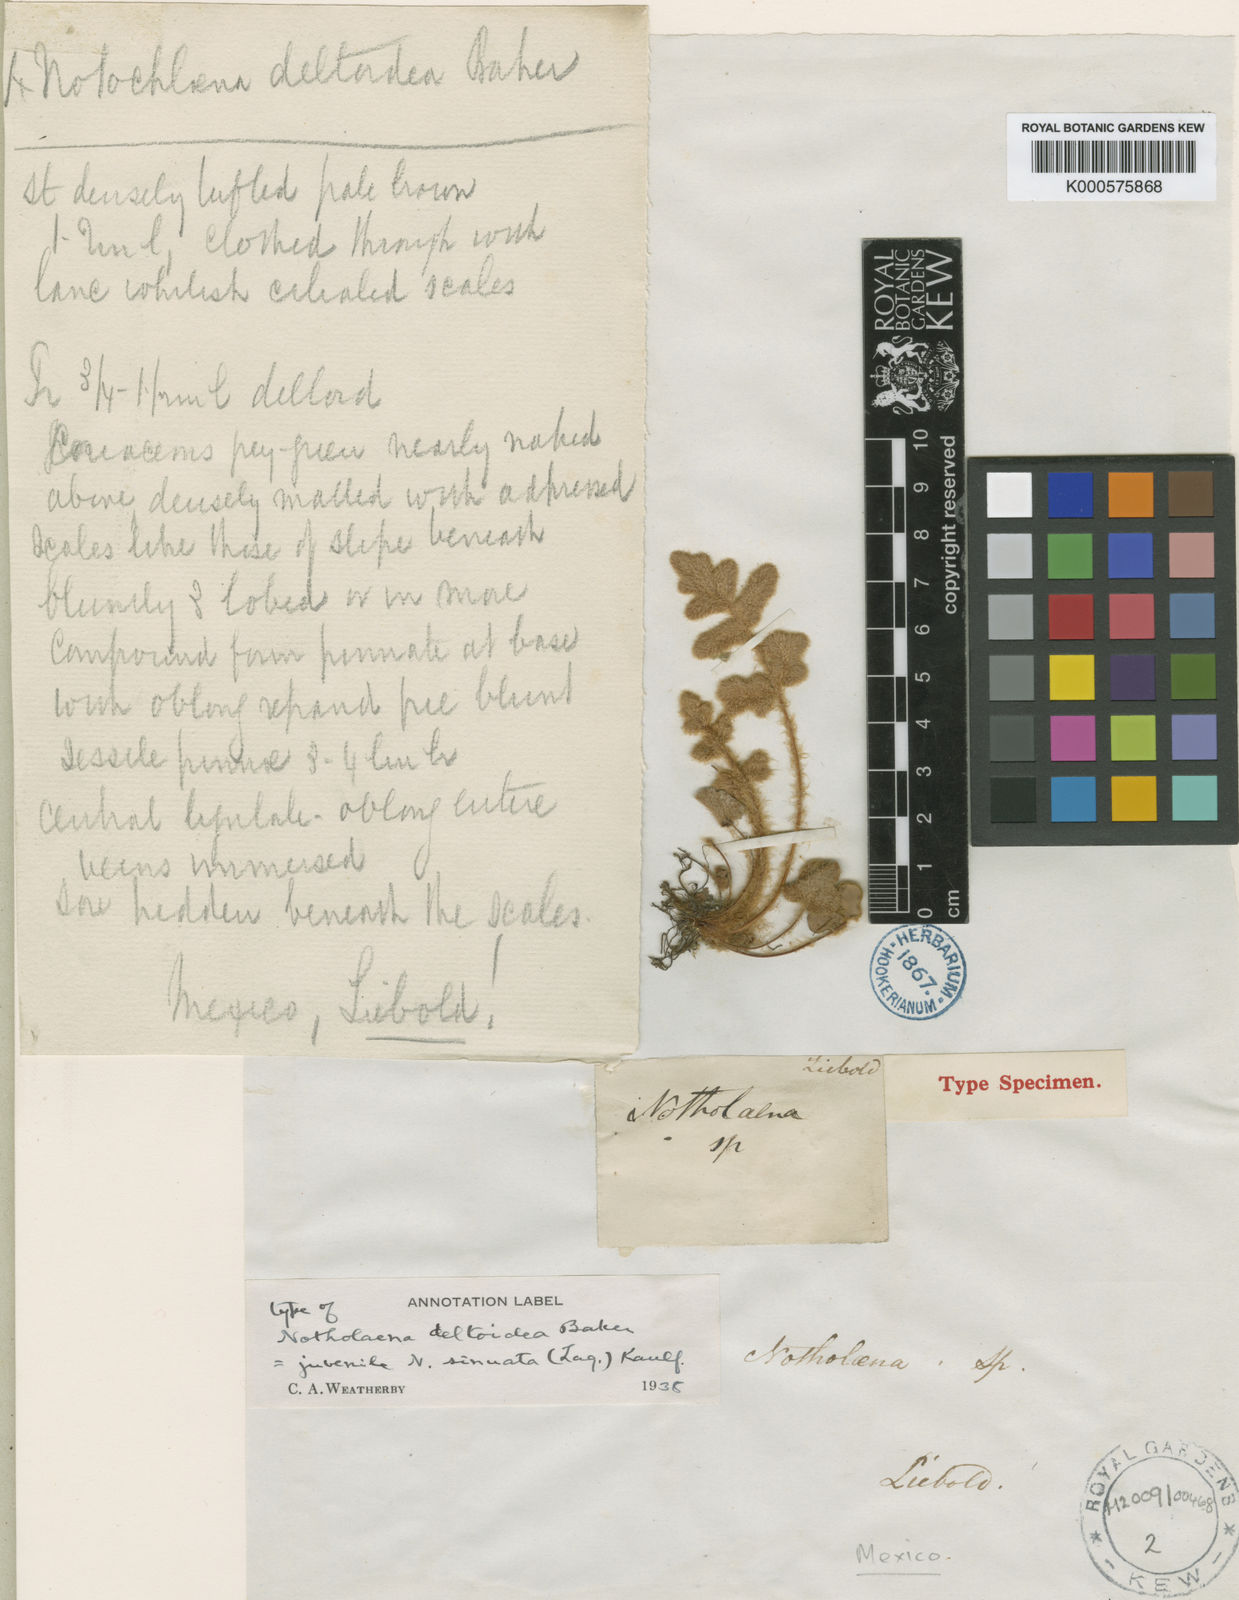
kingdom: Plantae
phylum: Tracheophyta
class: Polypodiopsida
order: Polypodiales
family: Pteridaceae
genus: Astrolepis
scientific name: Astrolepis sinuata
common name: Wavy scaly cloakfern
